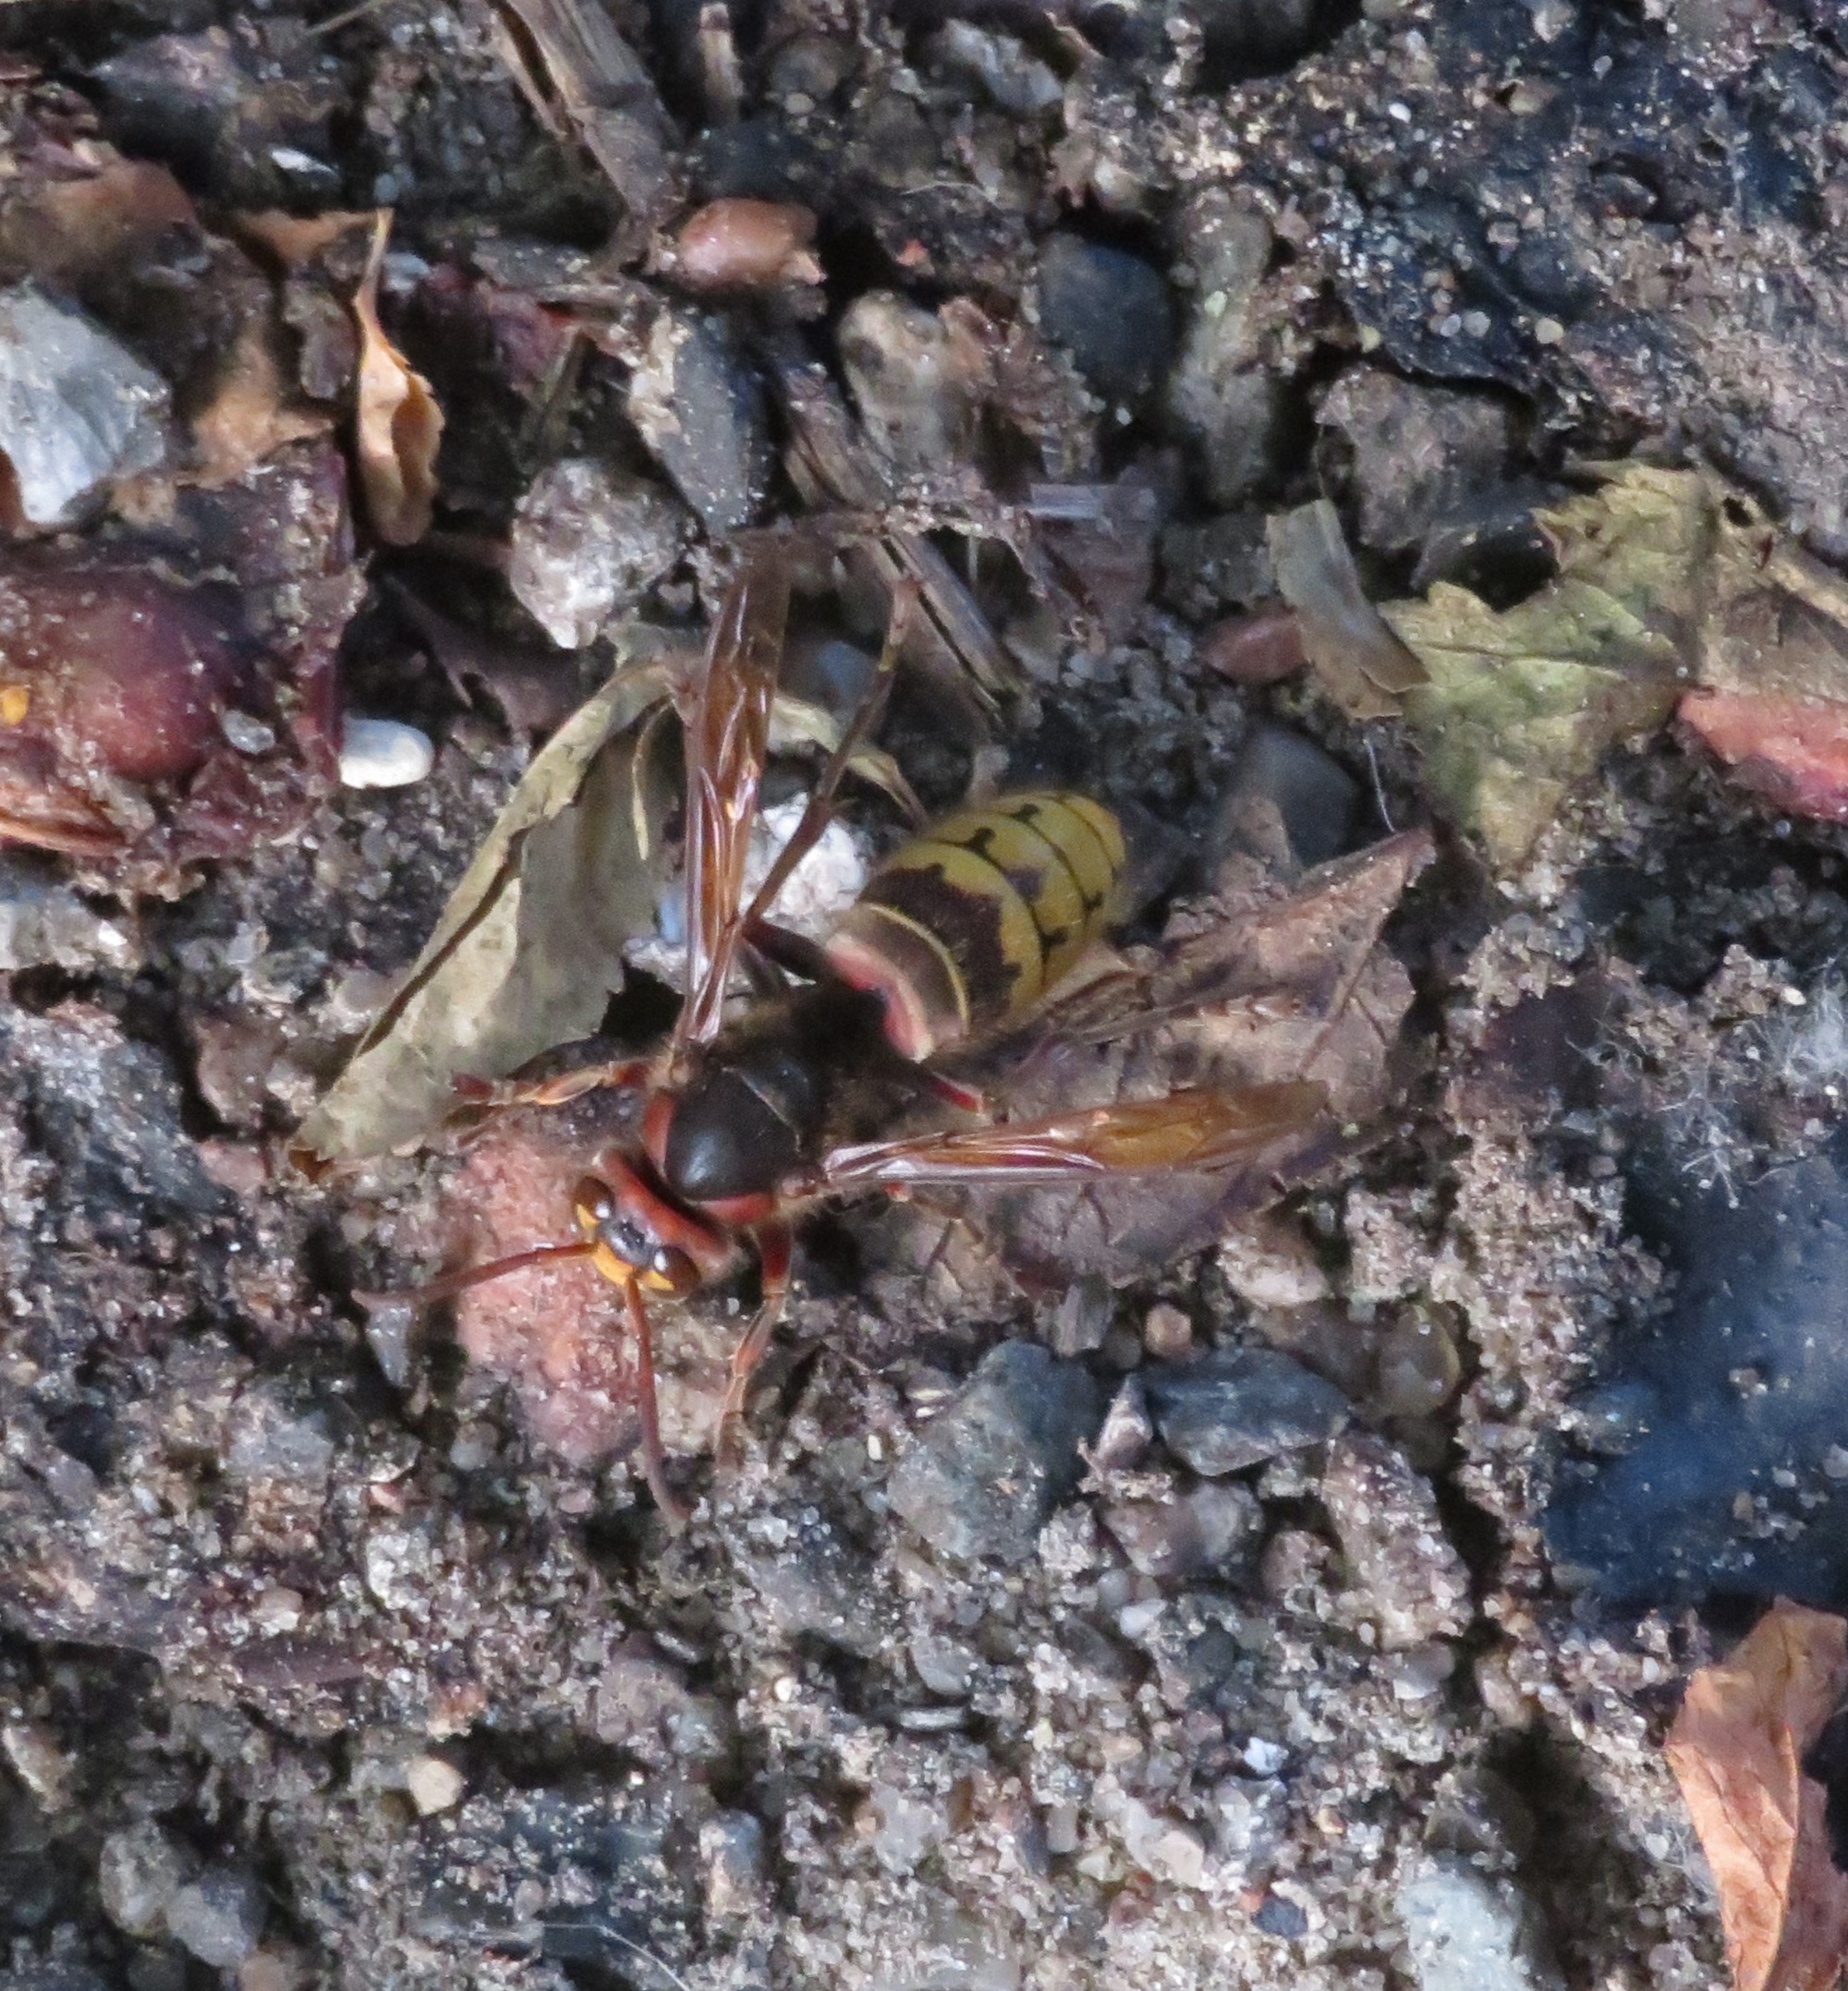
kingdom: Animalia
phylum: Arthropoda
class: Insecta
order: Hymenoptera
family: Vespidae
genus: Vespa
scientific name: Vespa crabro
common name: Stor gedehams
